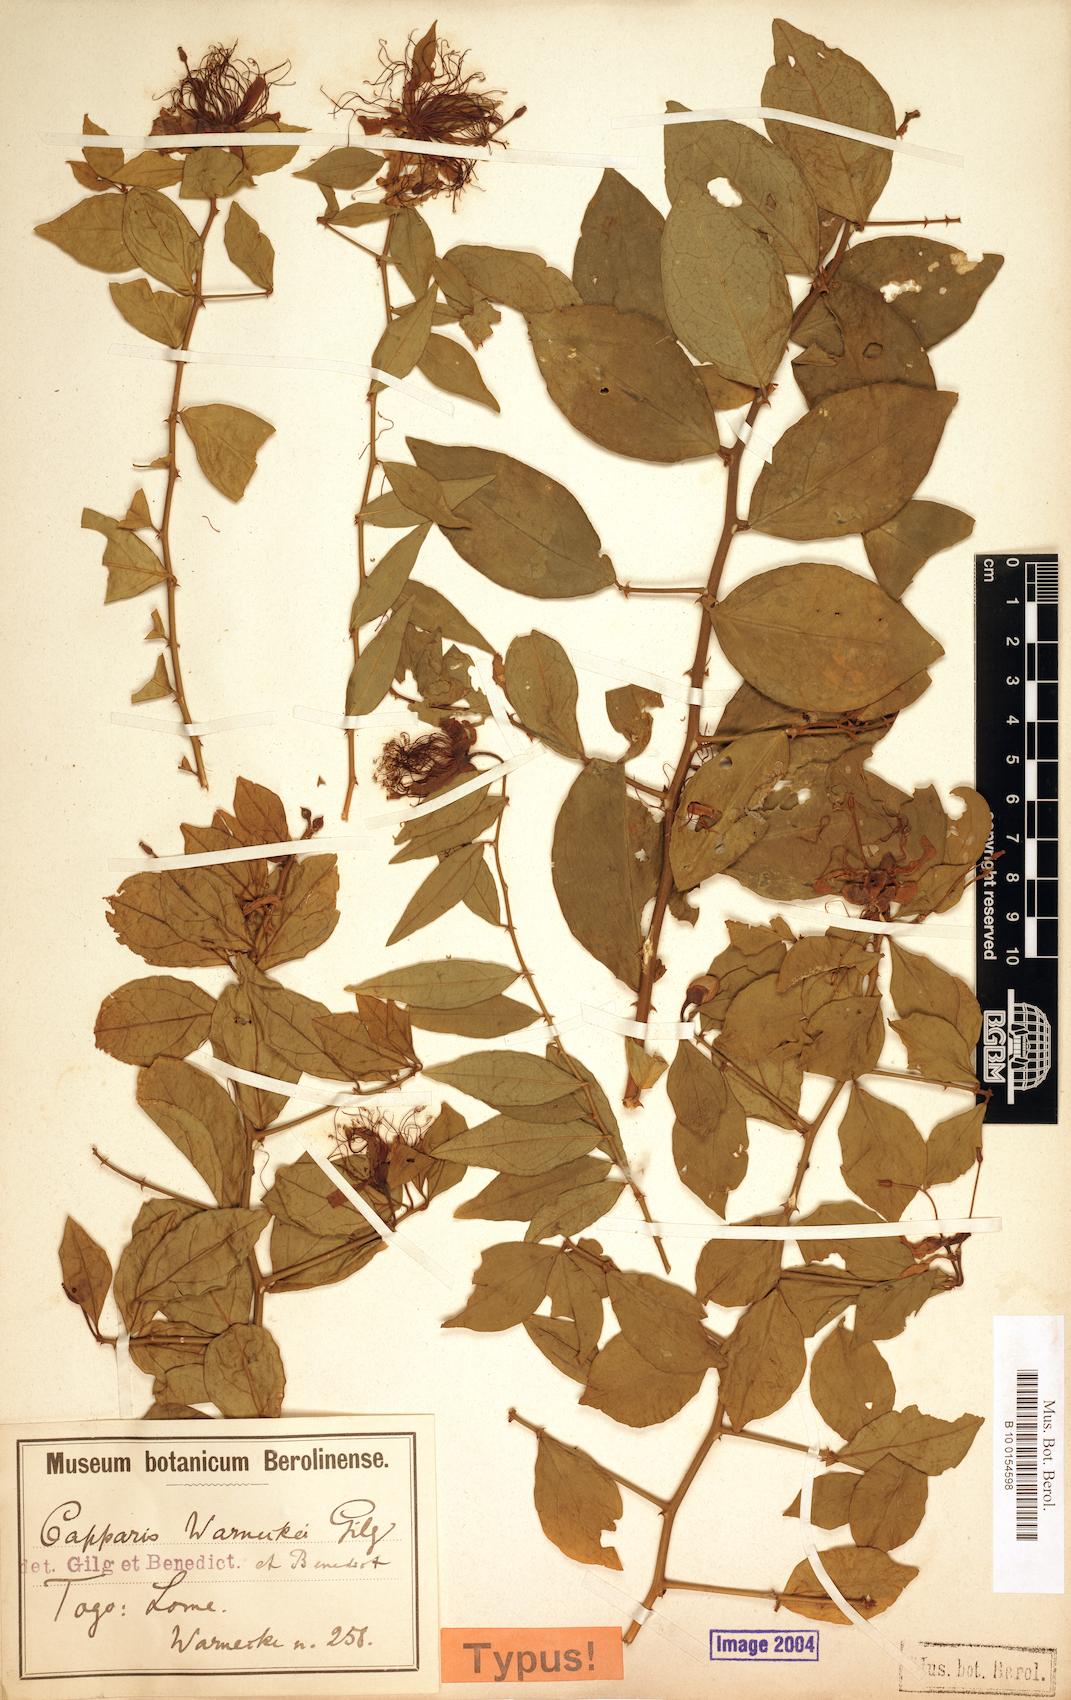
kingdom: Plantae
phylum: Tracheophyta
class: Magnoliopsida
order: Brassicales
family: Capparaceae
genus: Capparis
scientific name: Capparis erythrocarpos
